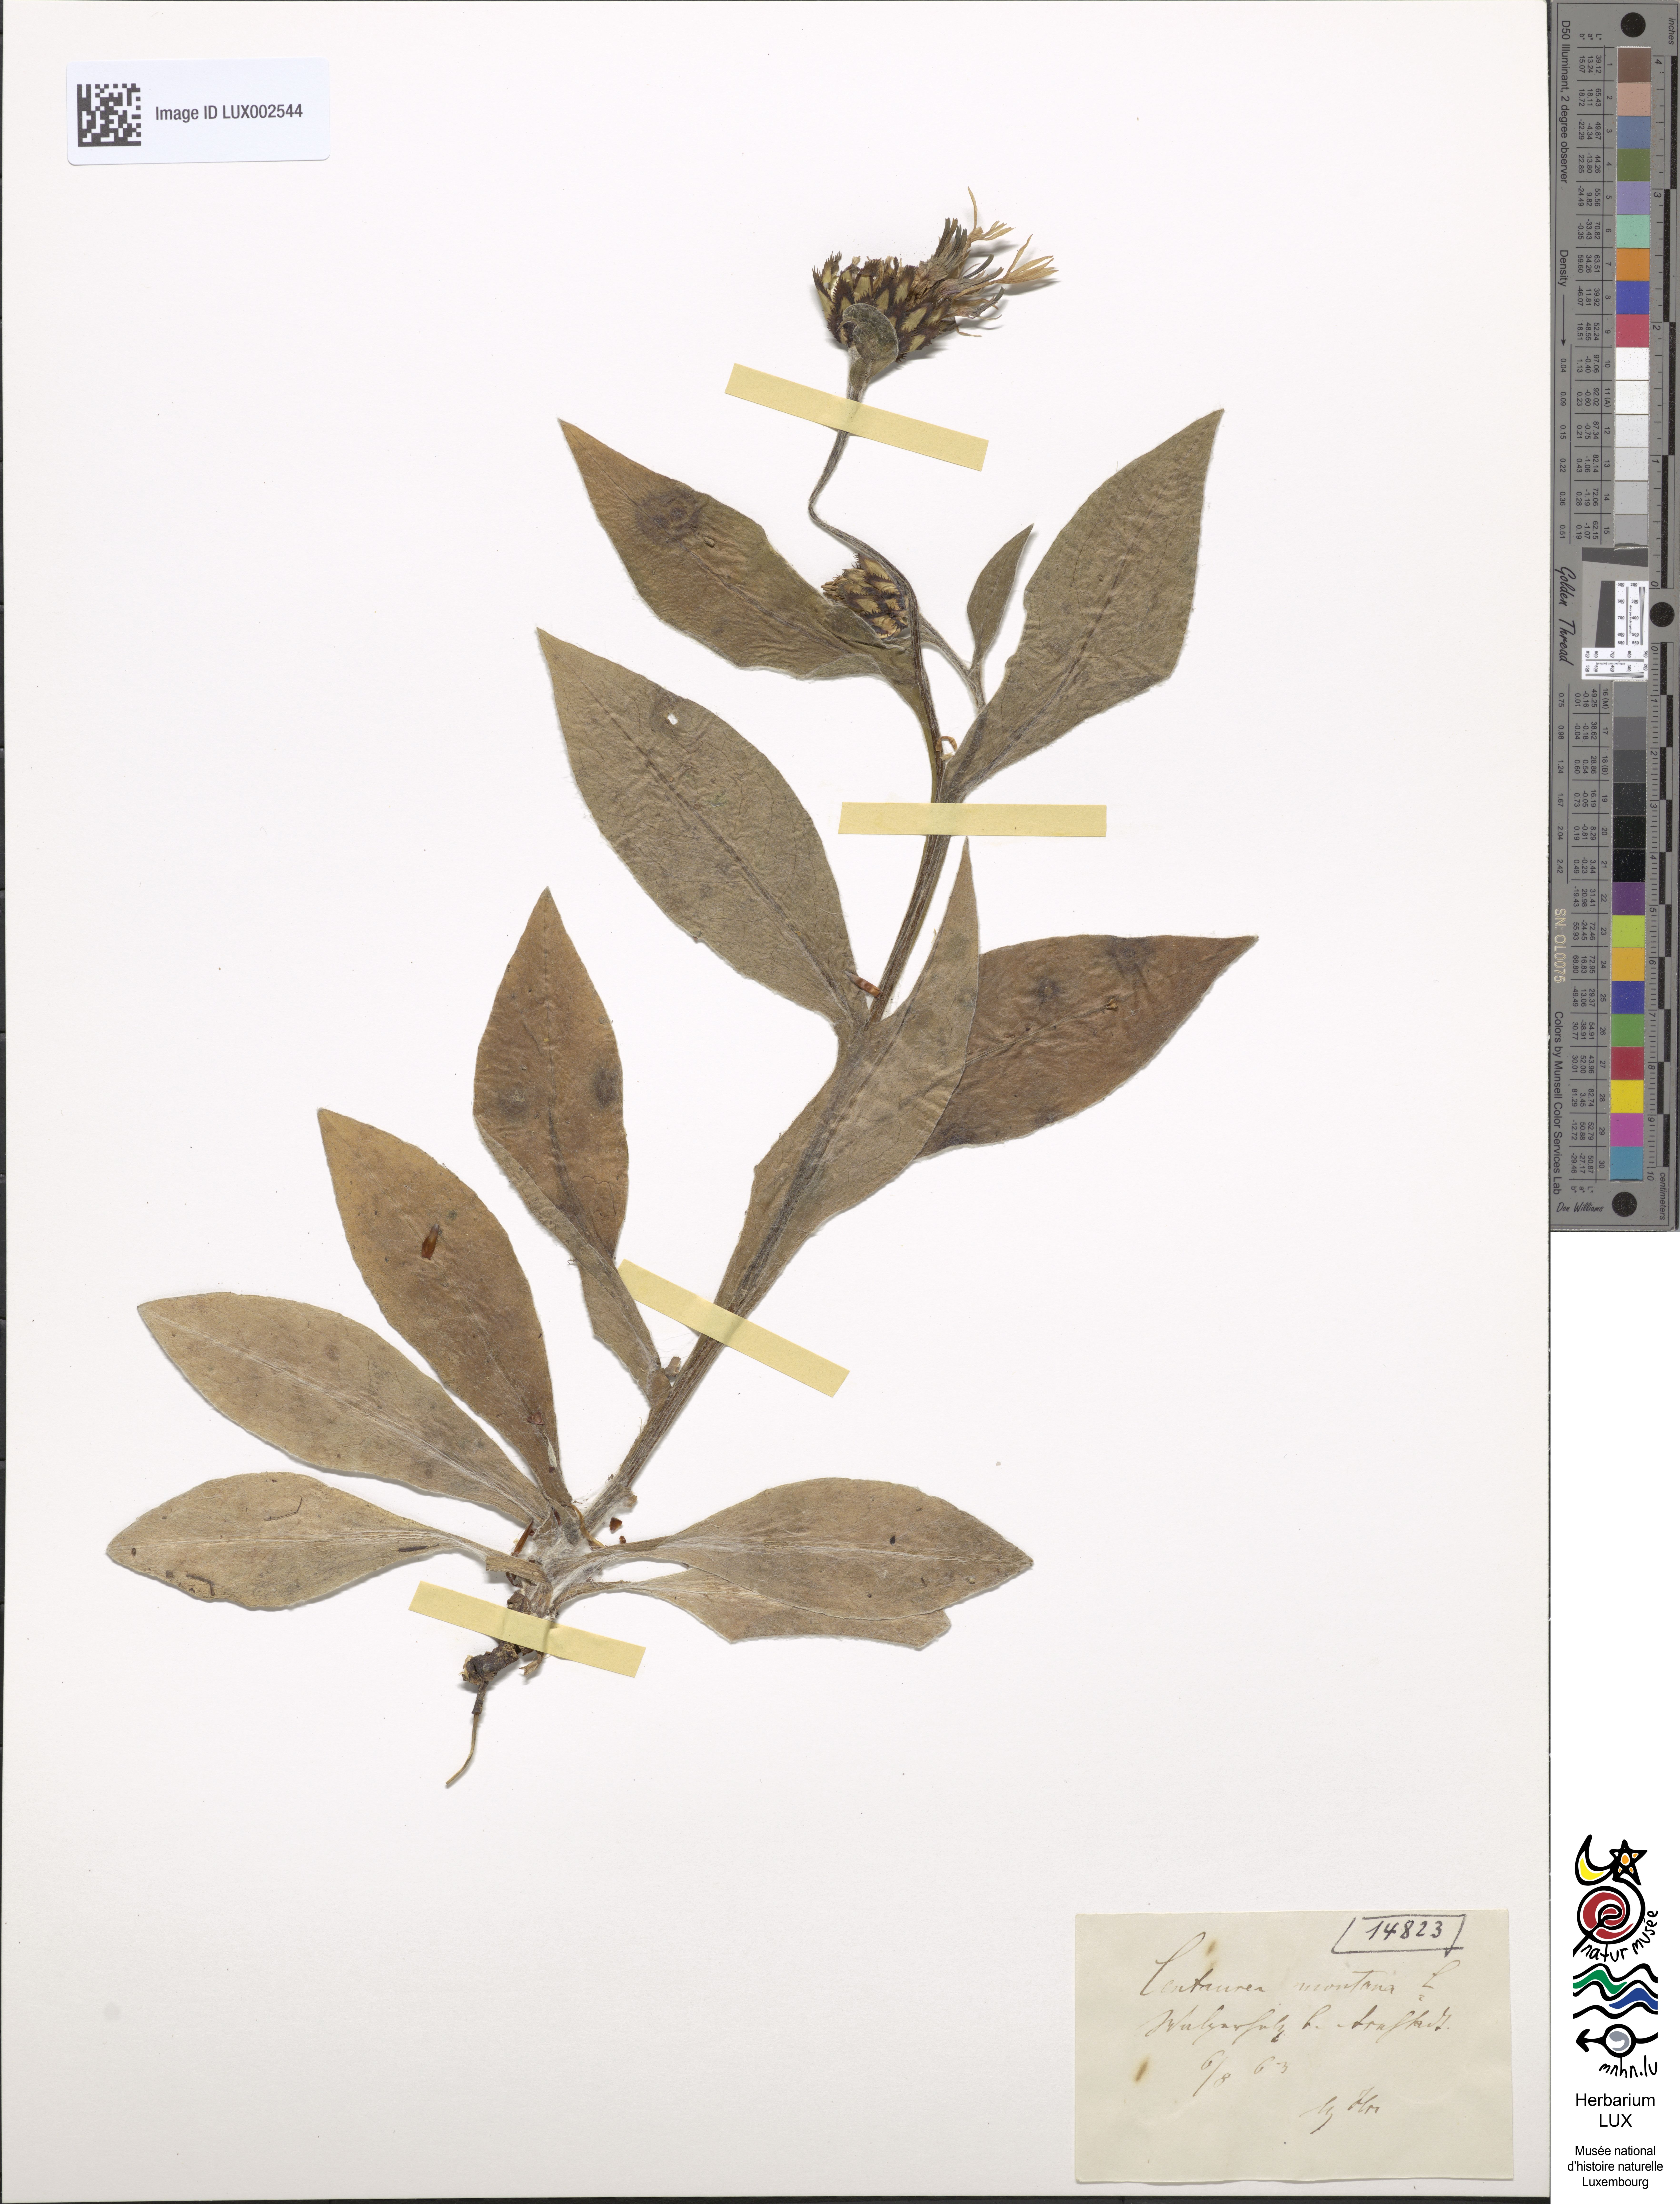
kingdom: Plantae
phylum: Tracheophyta
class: Magnoliopsida
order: Asterales
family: Asteraceae
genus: Centaurea
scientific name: Centaurea montana
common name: Perennial cornflower
